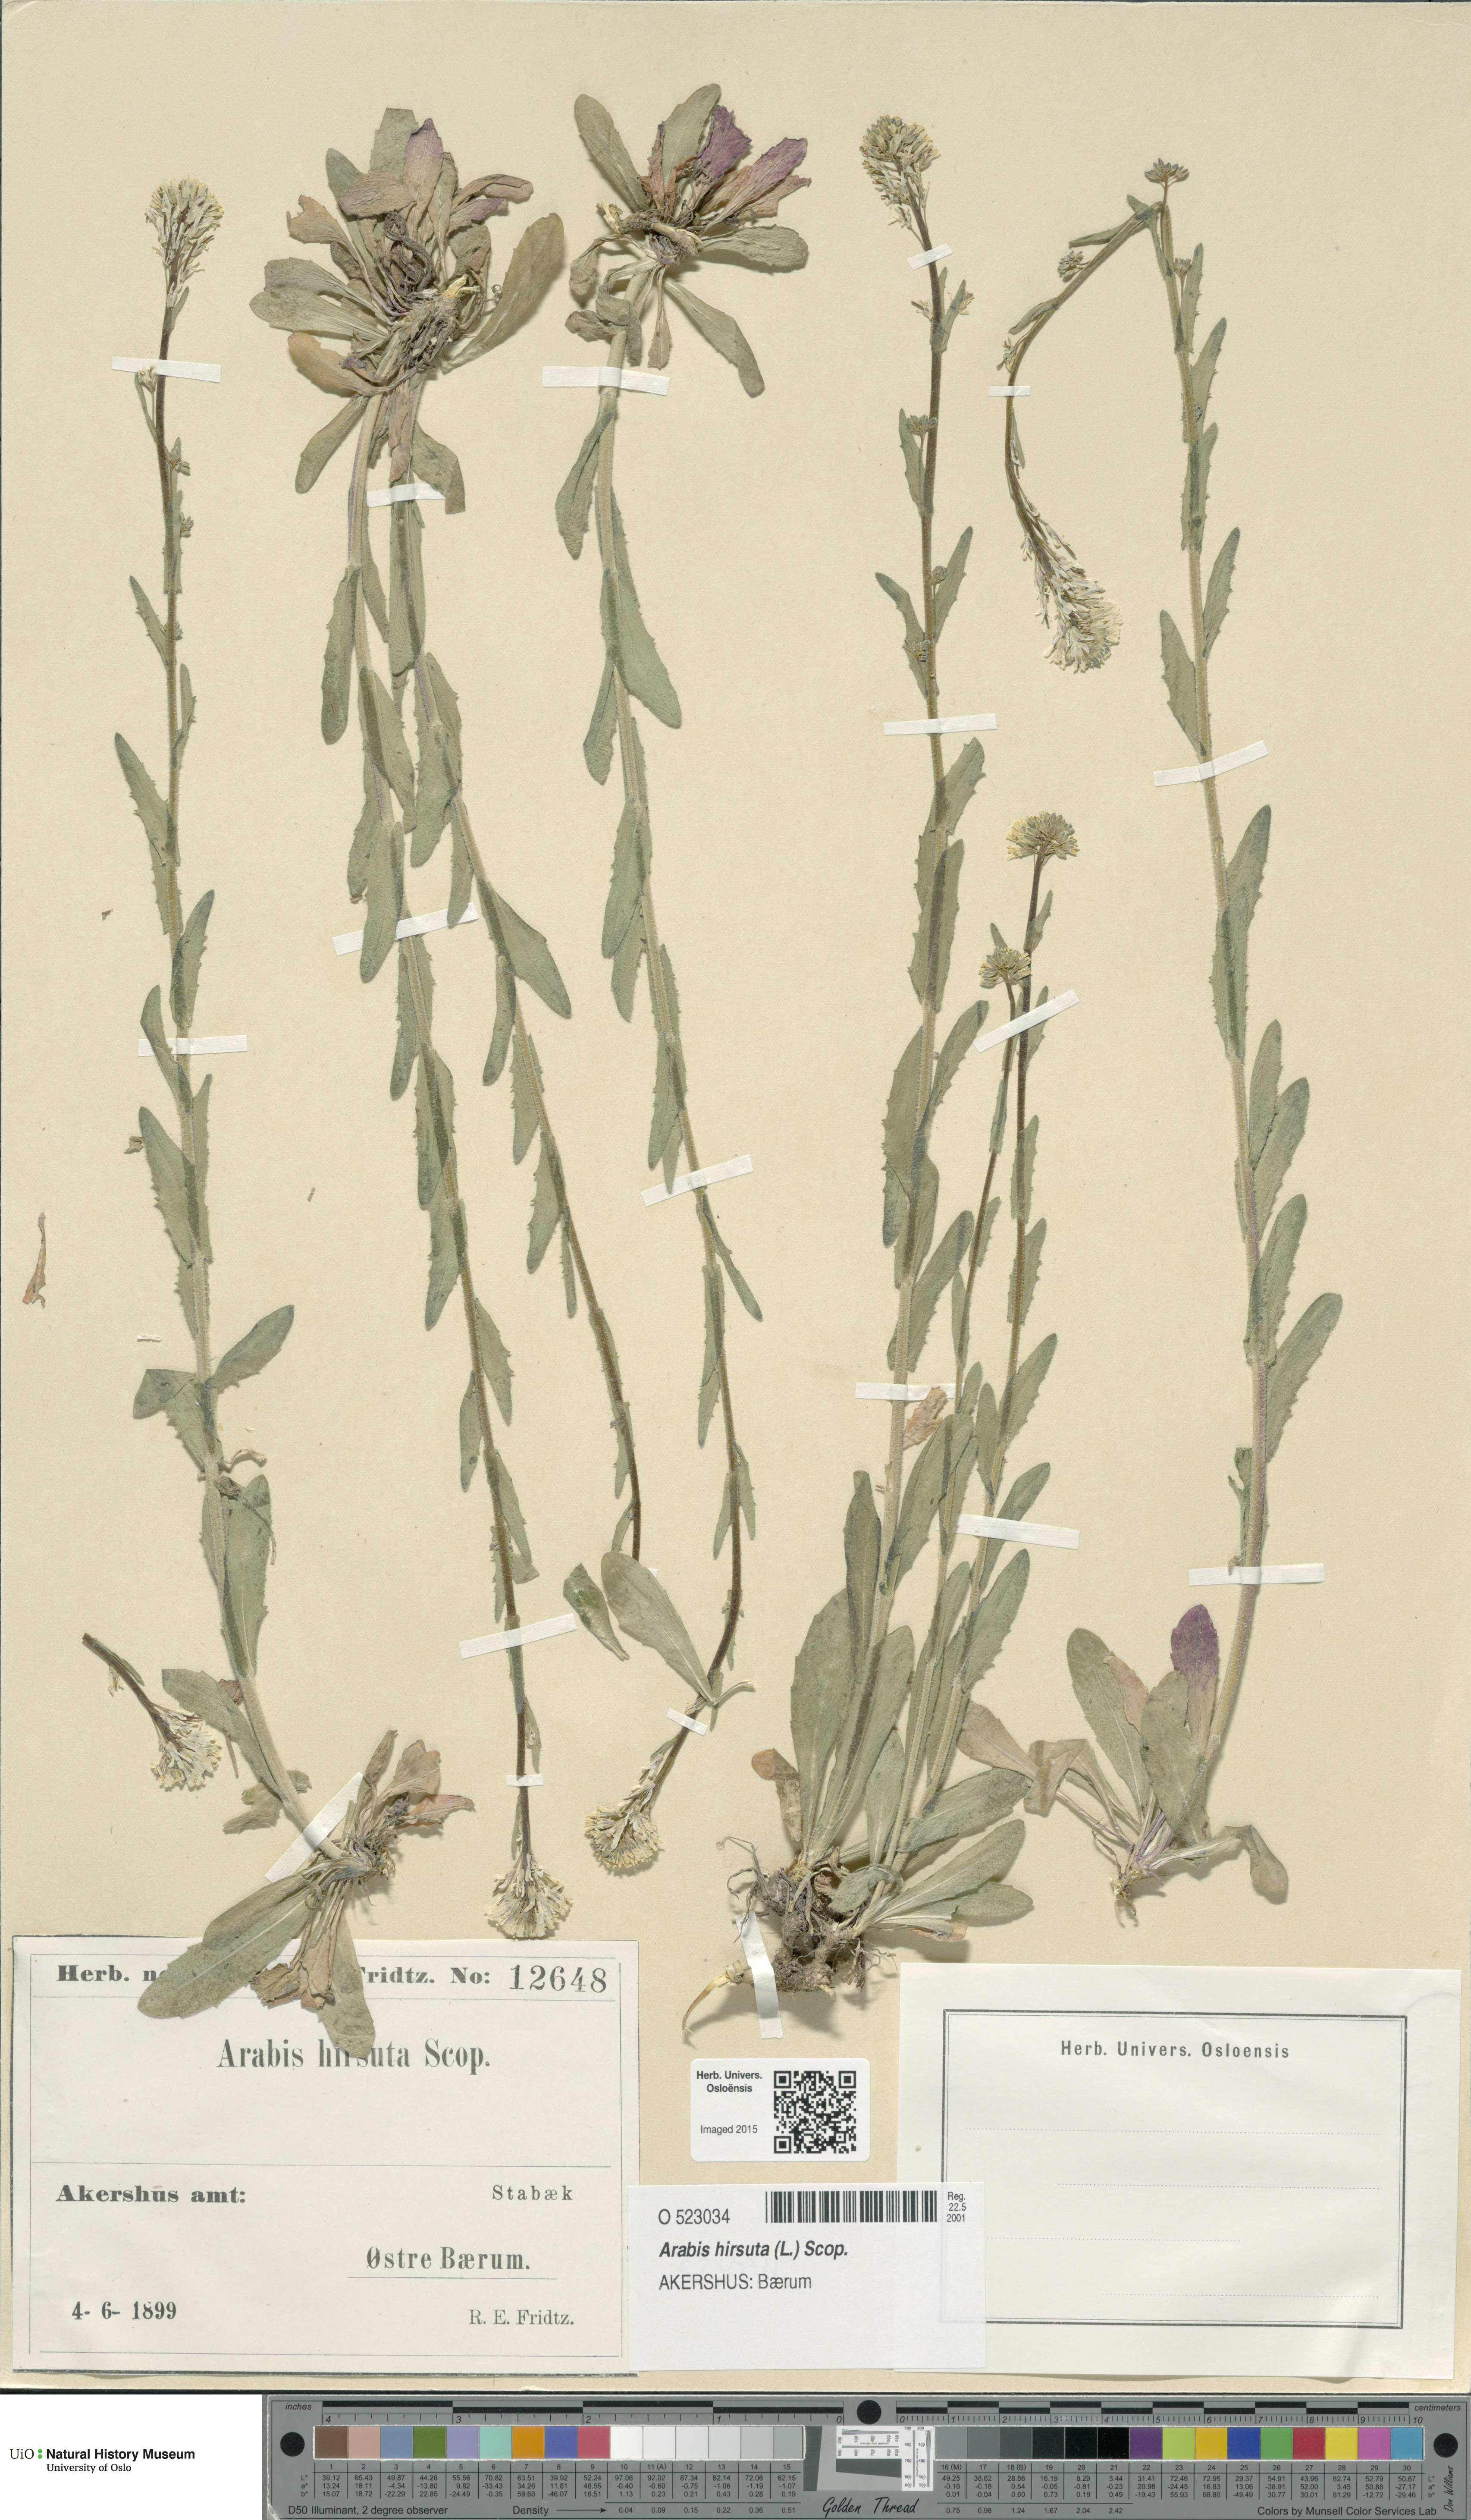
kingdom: Plantae
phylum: Tracheophyta
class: Magnoliopsida
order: Brassicales
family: Brassicaceae
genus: Arabis
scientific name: Arabis hirsuta
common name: Hairy rock-cress
